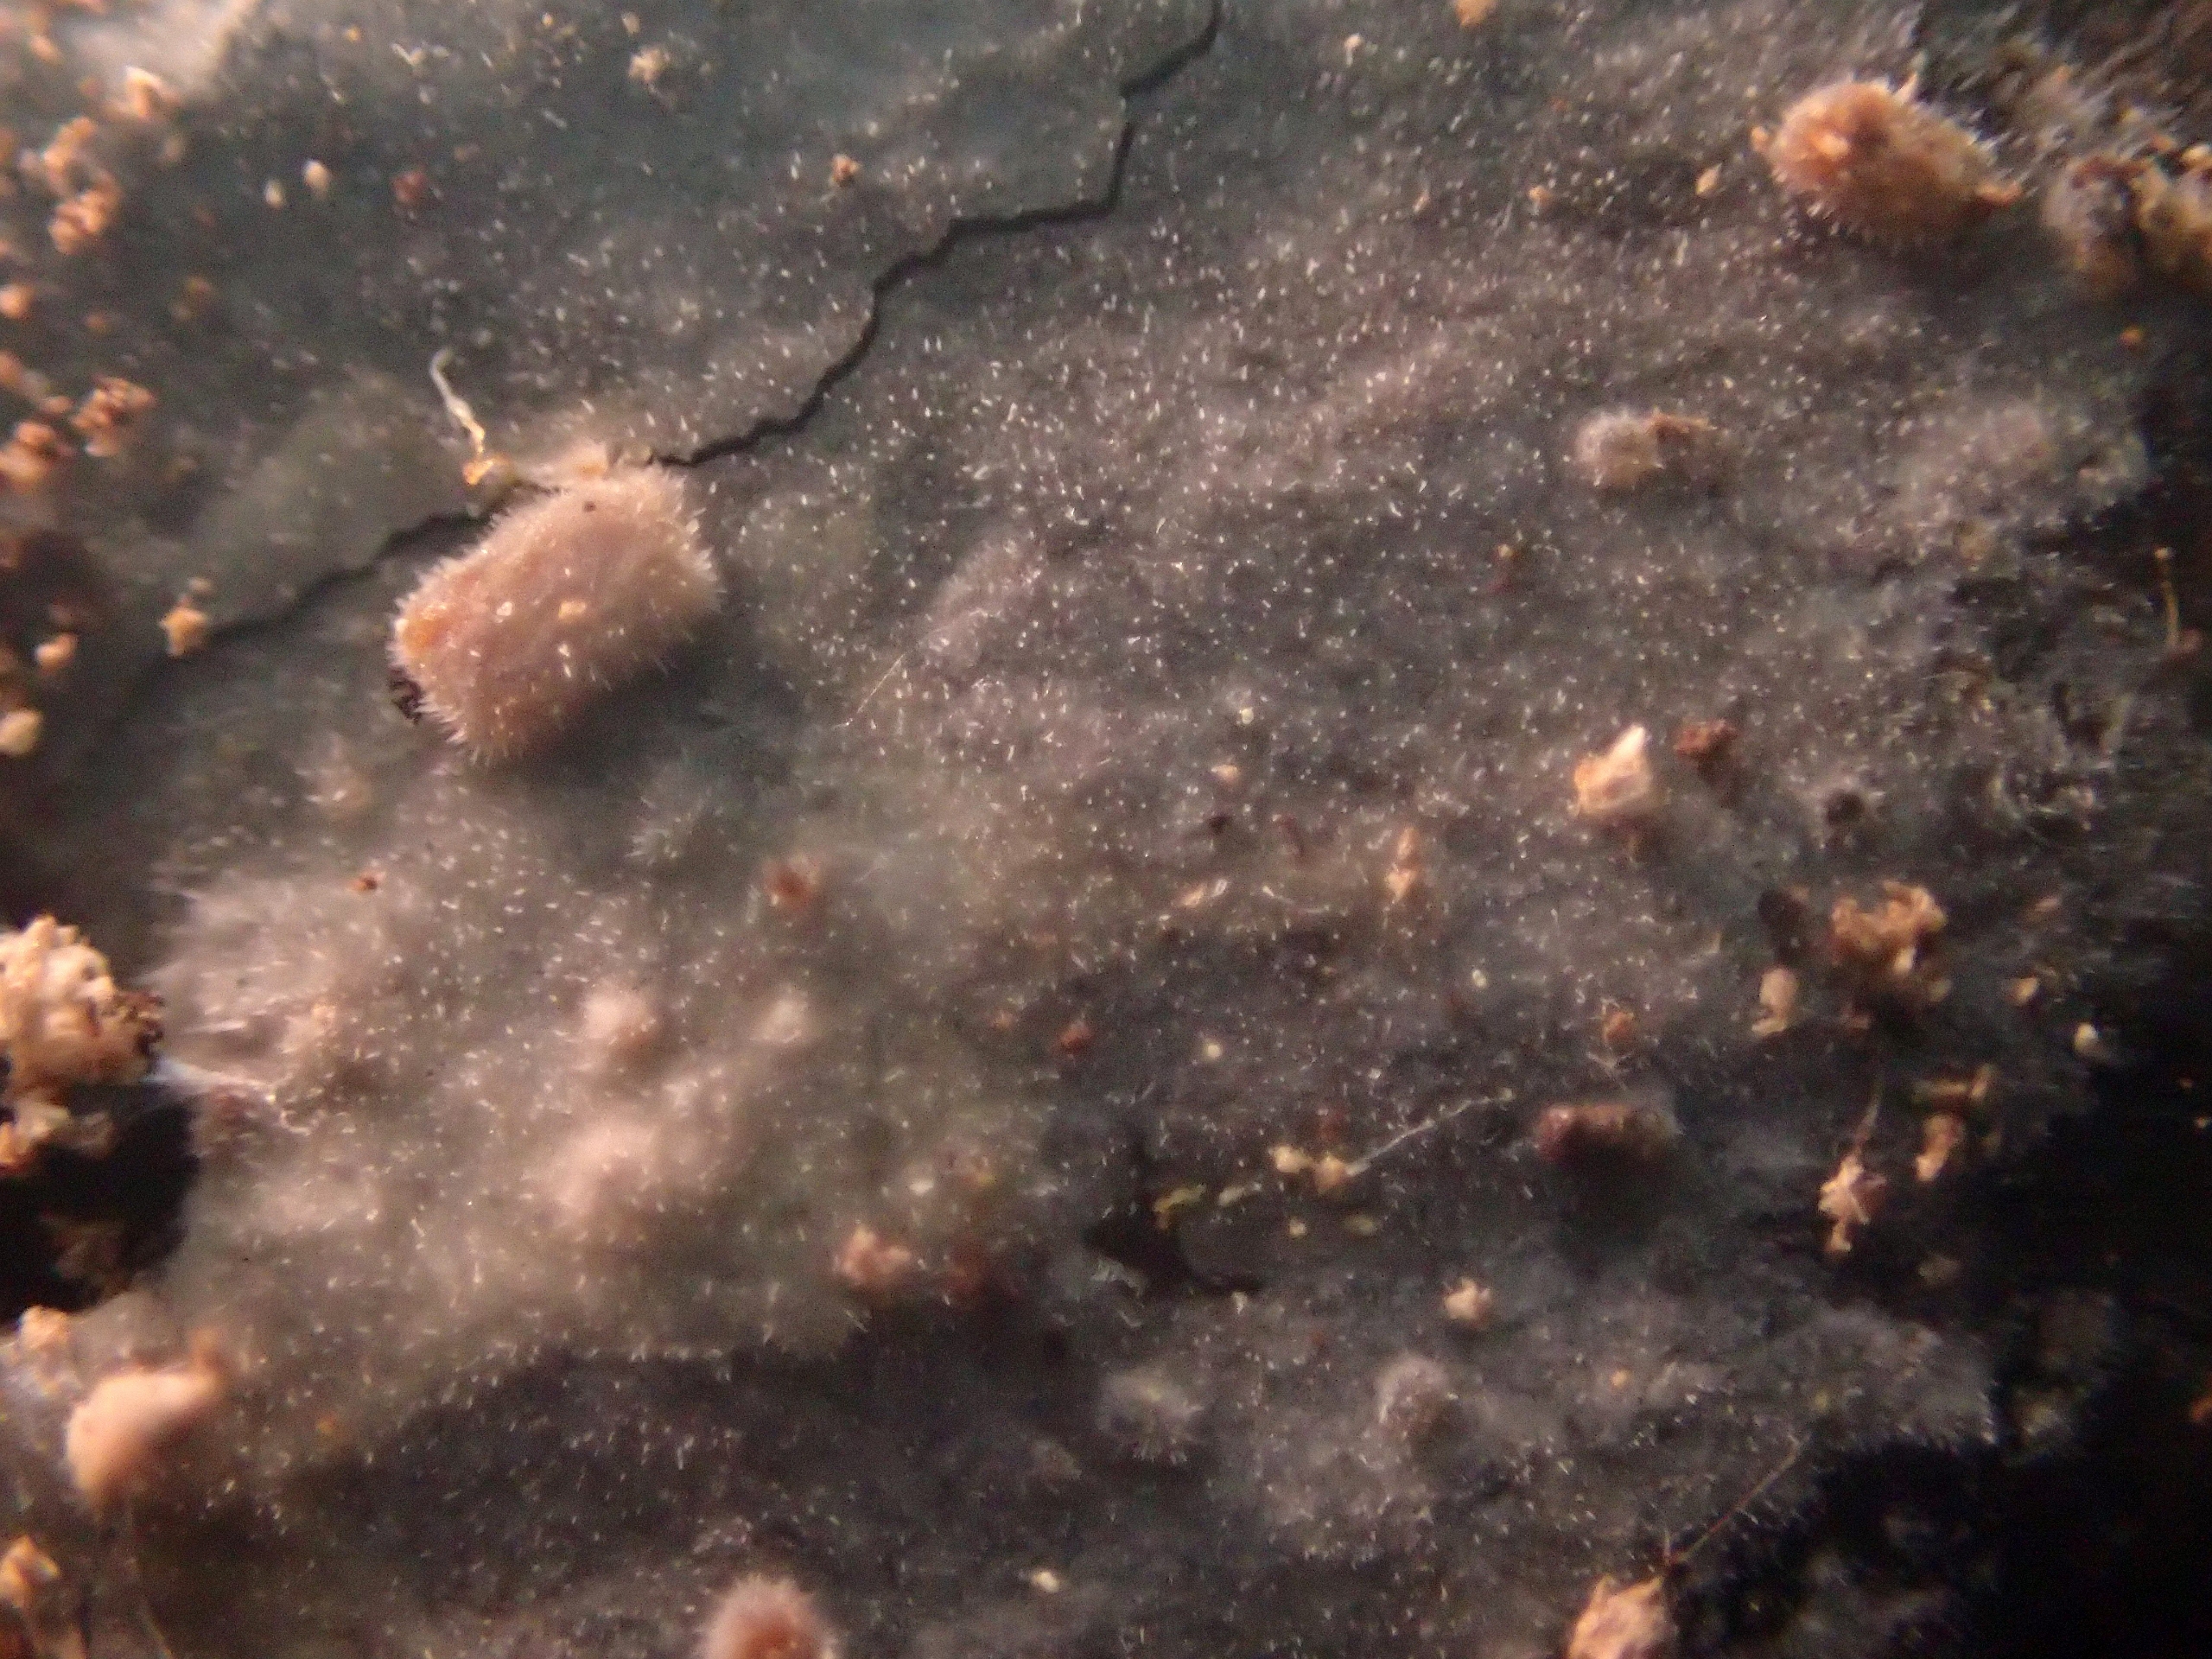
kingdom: Fungi
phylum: Basidiomycota
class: Agaricomycetes
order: Hymenochaetales
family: Rickenellaceae
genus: Peniophorella
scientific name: Peniophorella pubera
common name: Dunet kalkskind
